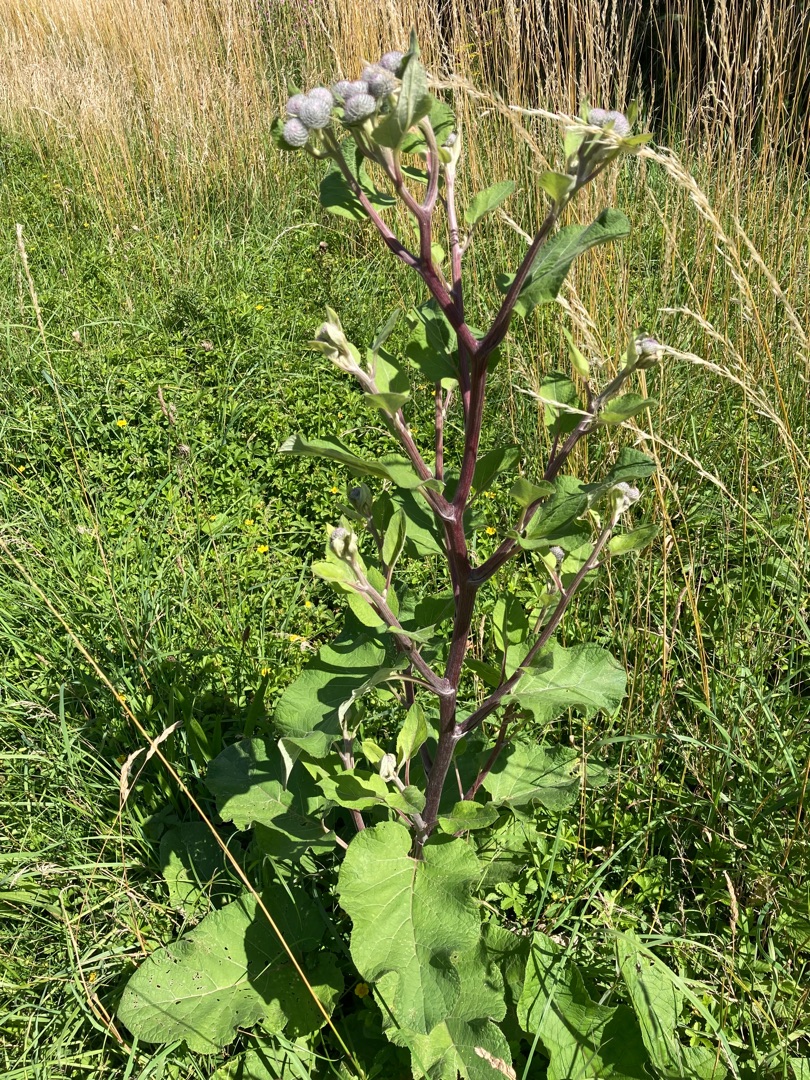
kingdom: Plantae
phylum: Tracheophyta
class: Magnoliopsida
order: Asterales
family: Asteraceae
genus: Arctium
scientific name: Arctium tomentosum
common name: Filtet burre
